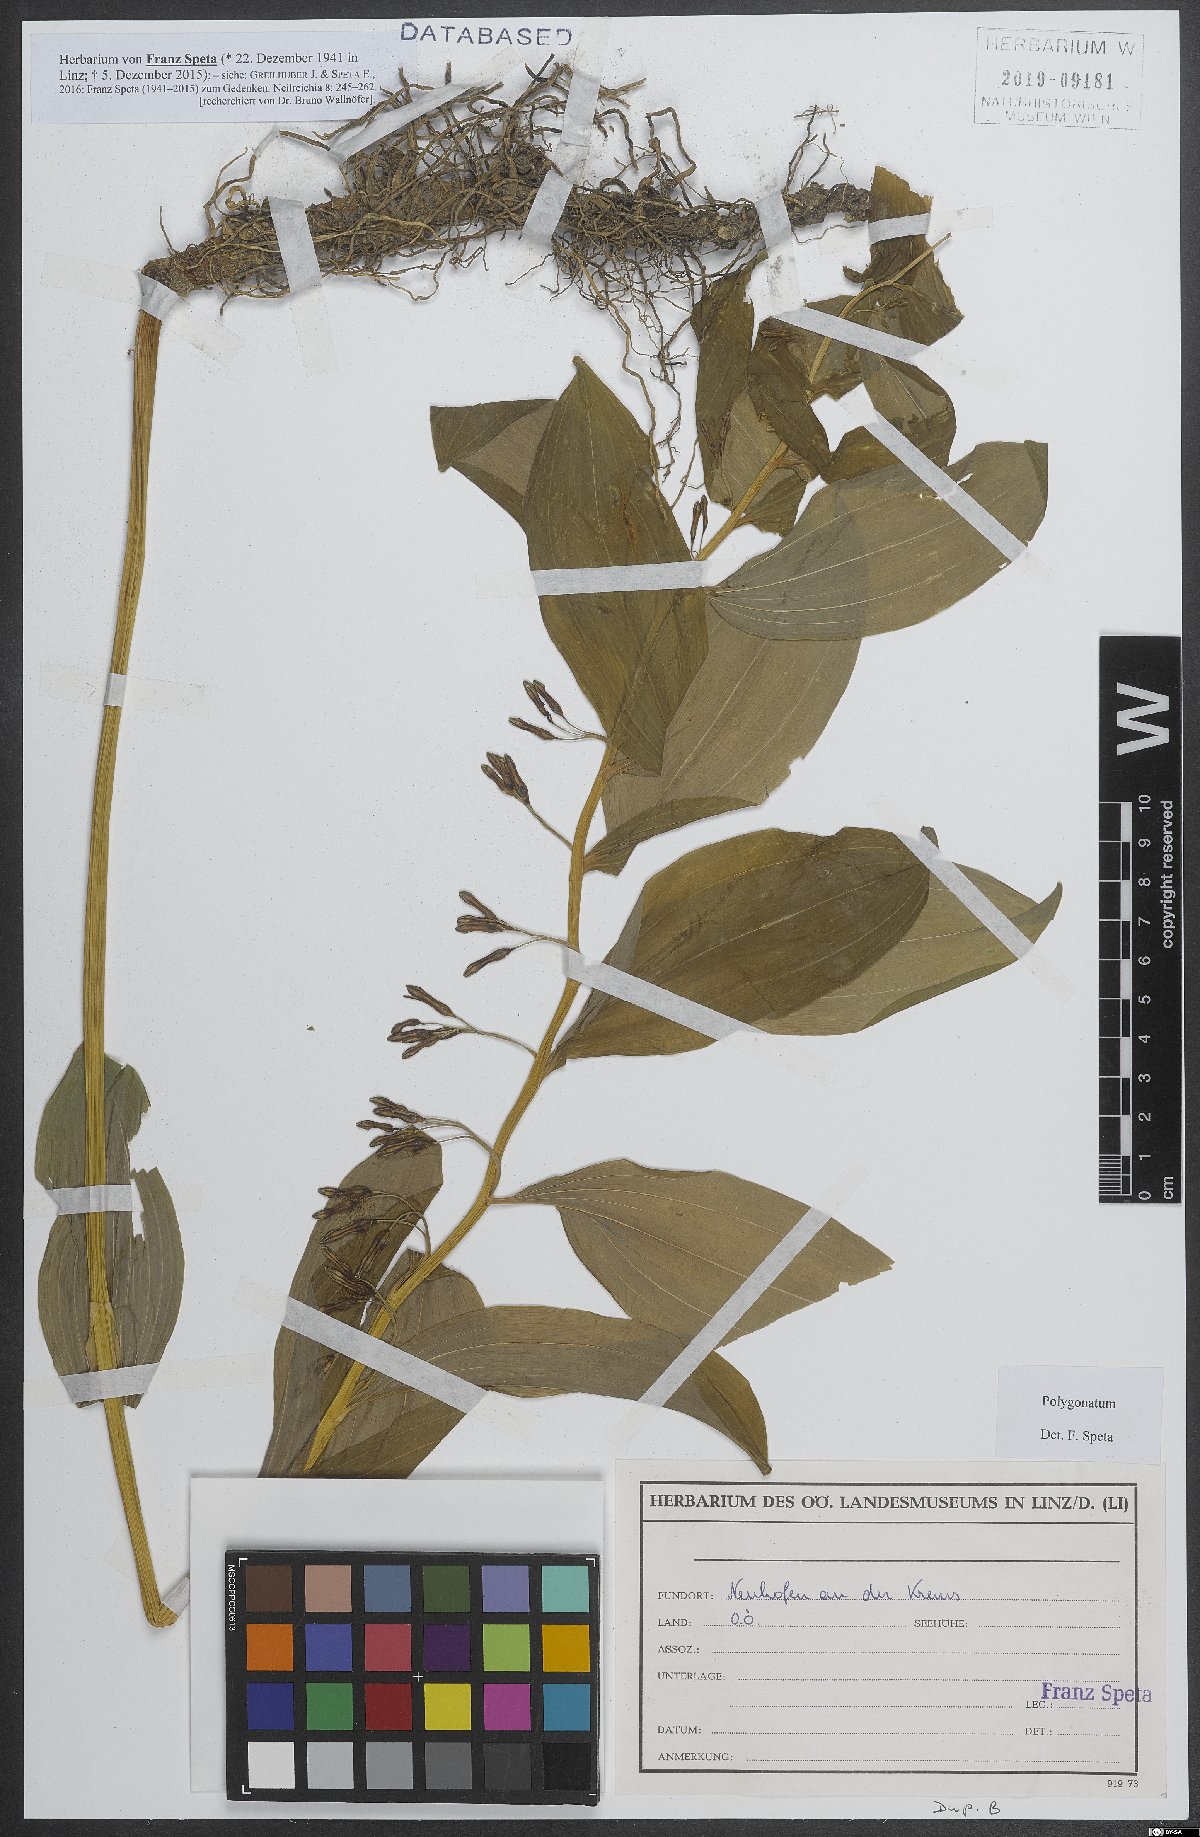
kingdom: Plantae
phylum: Tracheophyta
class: Liliopsida
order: Asparagales
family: Asparagaceae
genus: Polygonatum
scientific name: Polygonatum
